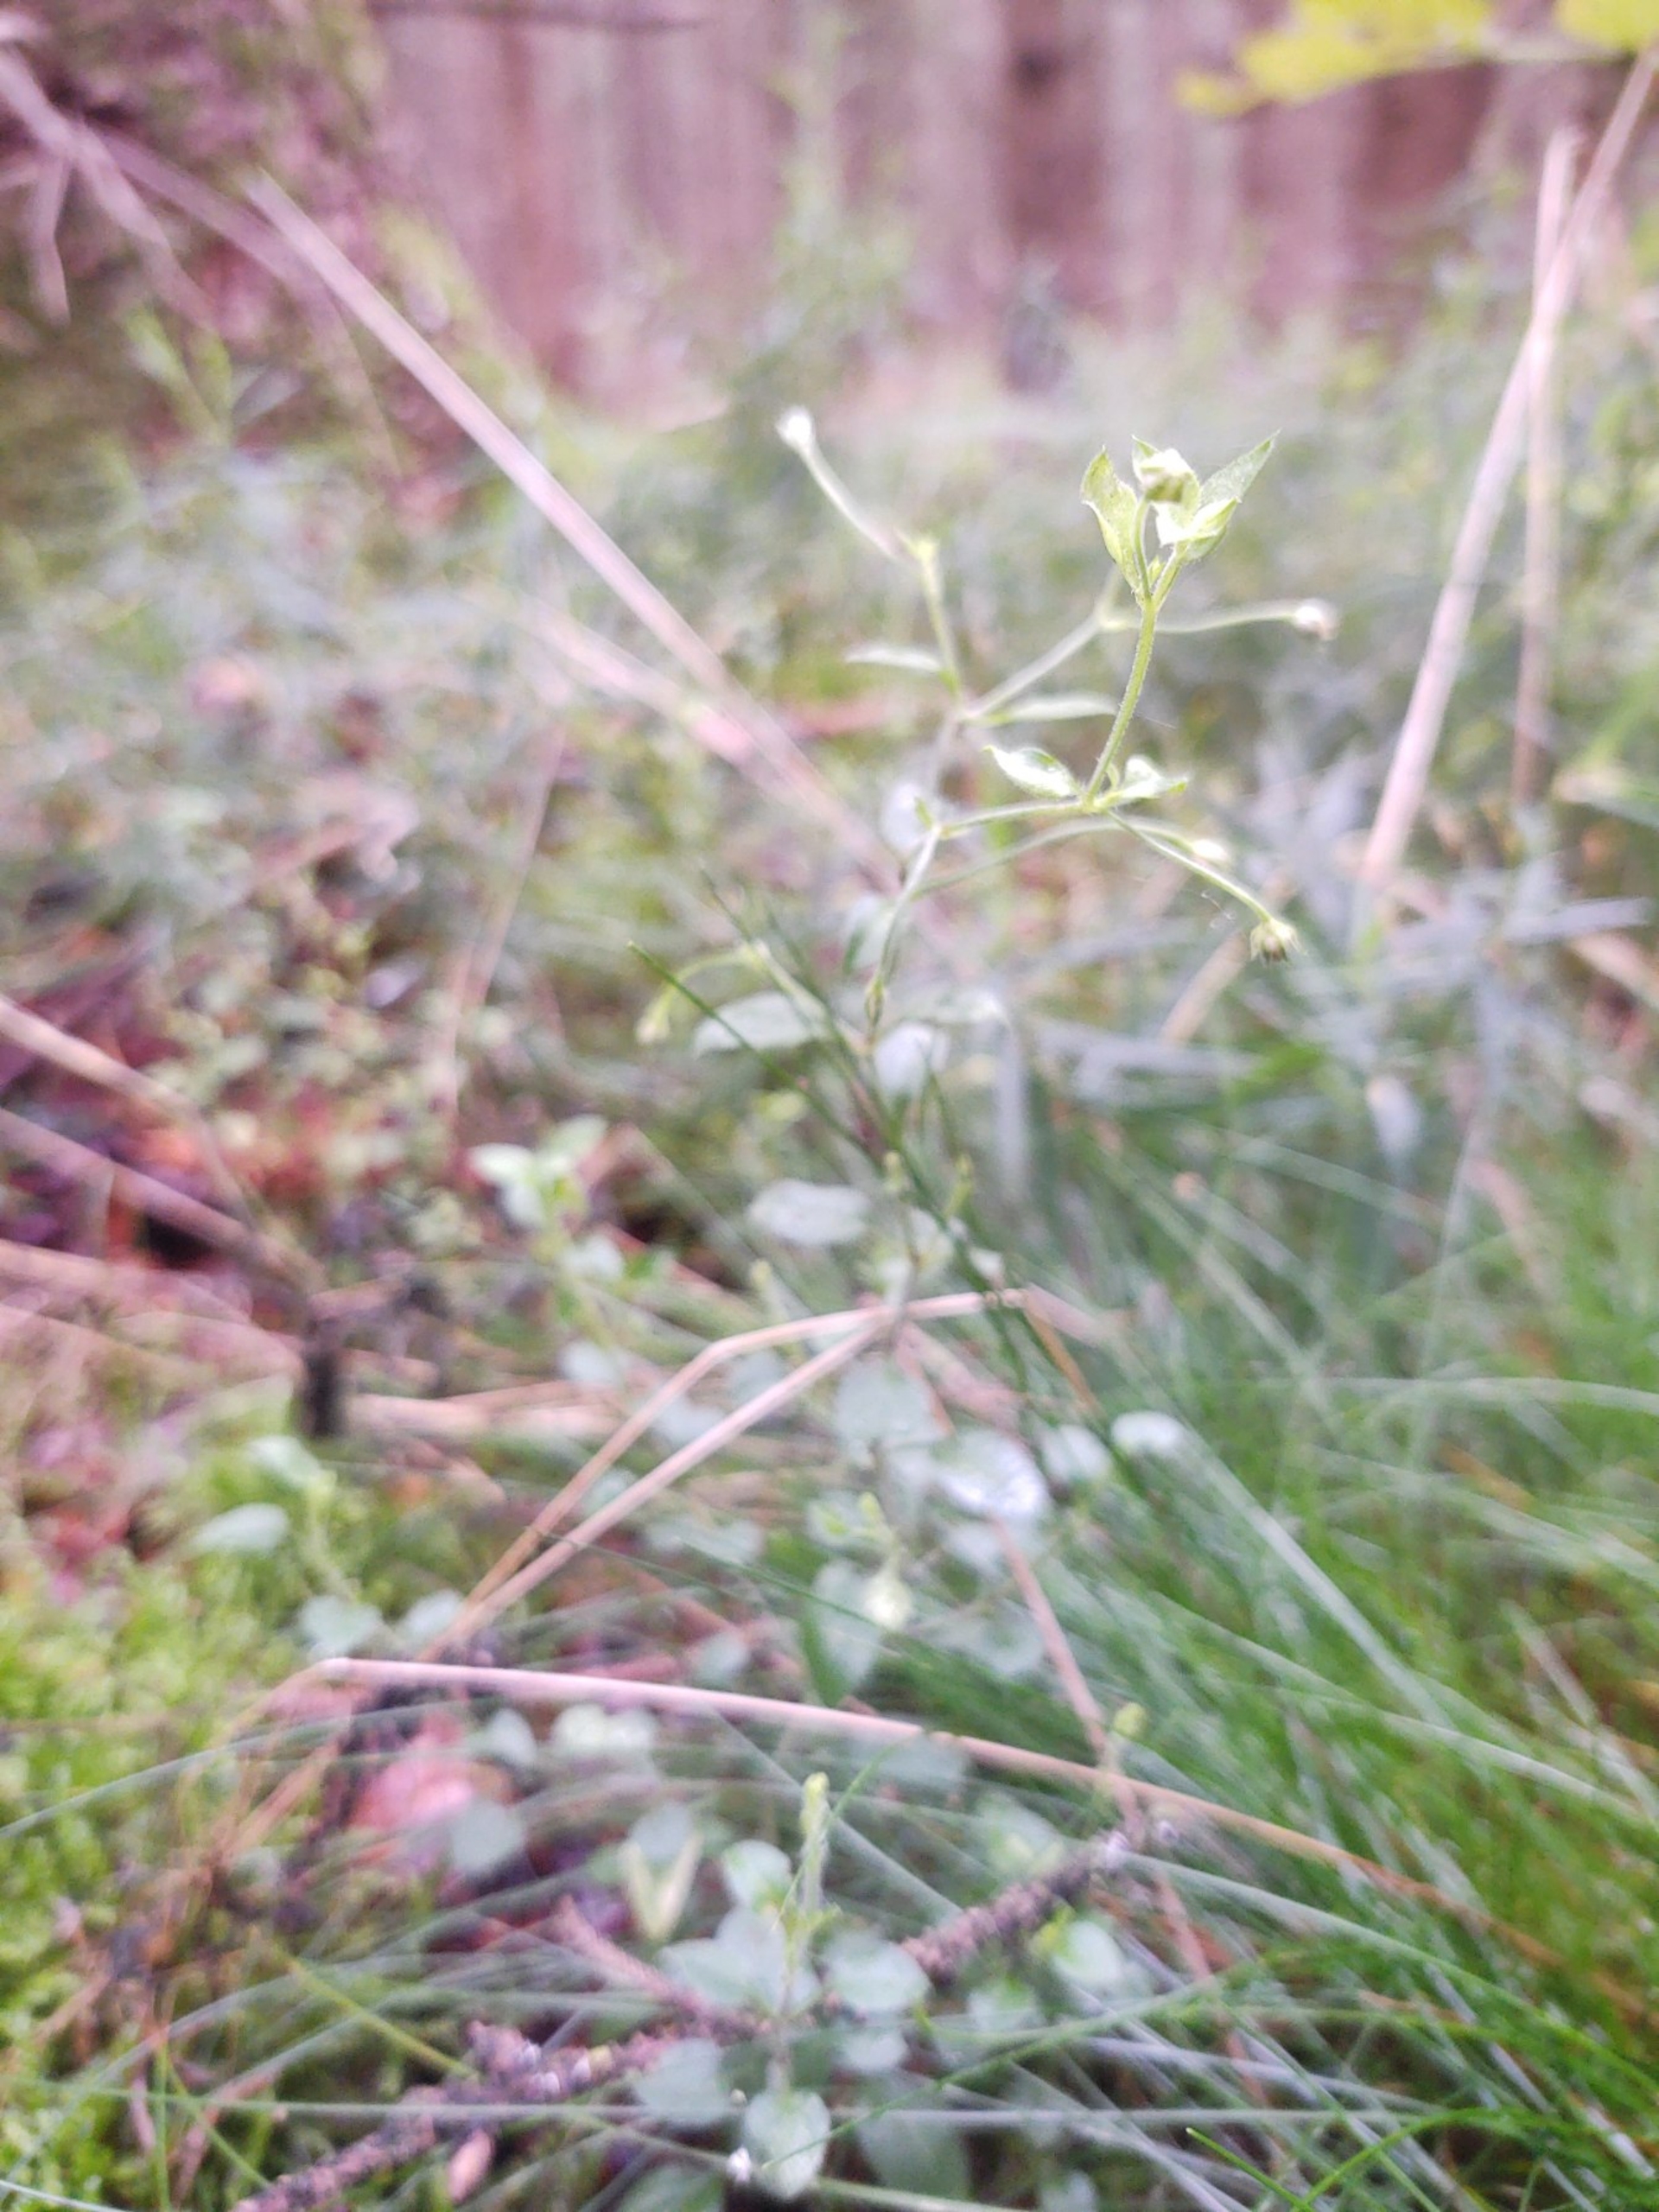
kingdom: Plantae
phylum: Tracheophyta
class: Magnoliopsida
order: Caryophyllales
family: Caryophyllaceae
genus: Moehringia
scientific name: Moehringia trinervia
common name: Skovarve
